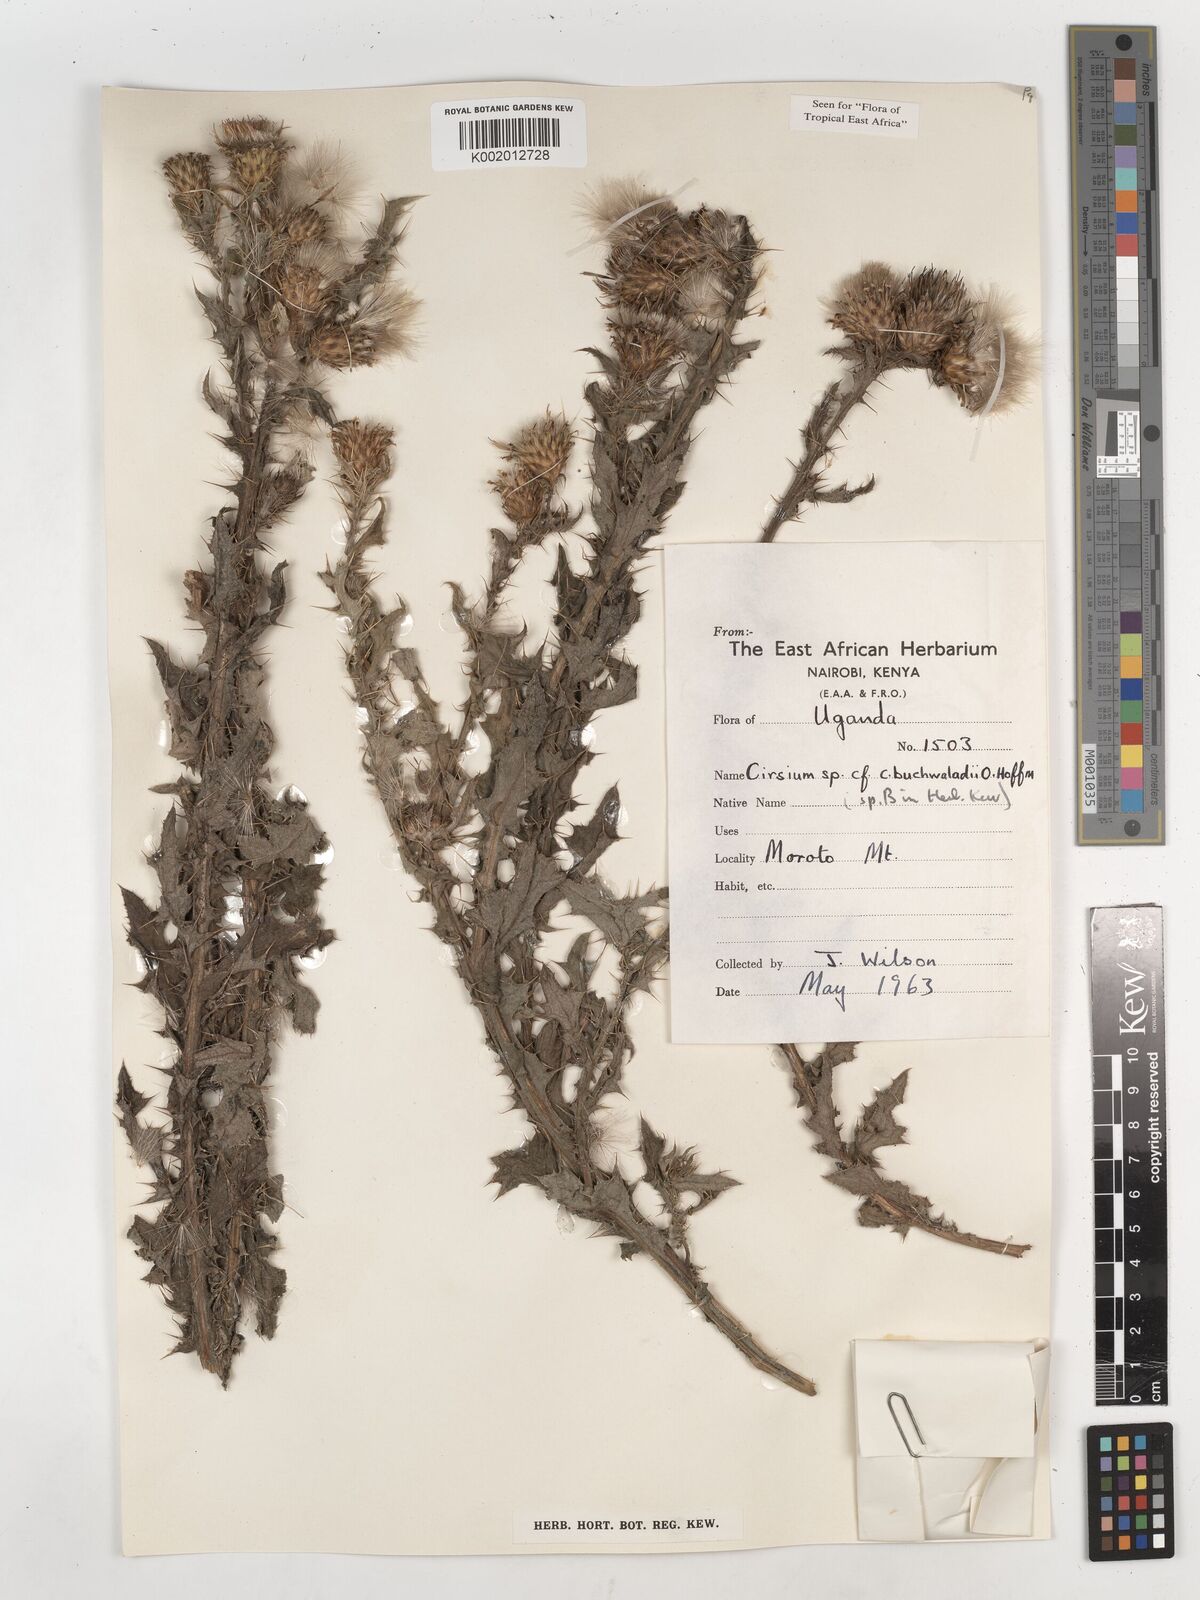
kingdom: Plantae
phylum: Tracheophyta
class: Magnoliopsida
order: Asterales
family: Asteraceae
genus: Cirsium
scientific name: Cirsium buchwaldii
